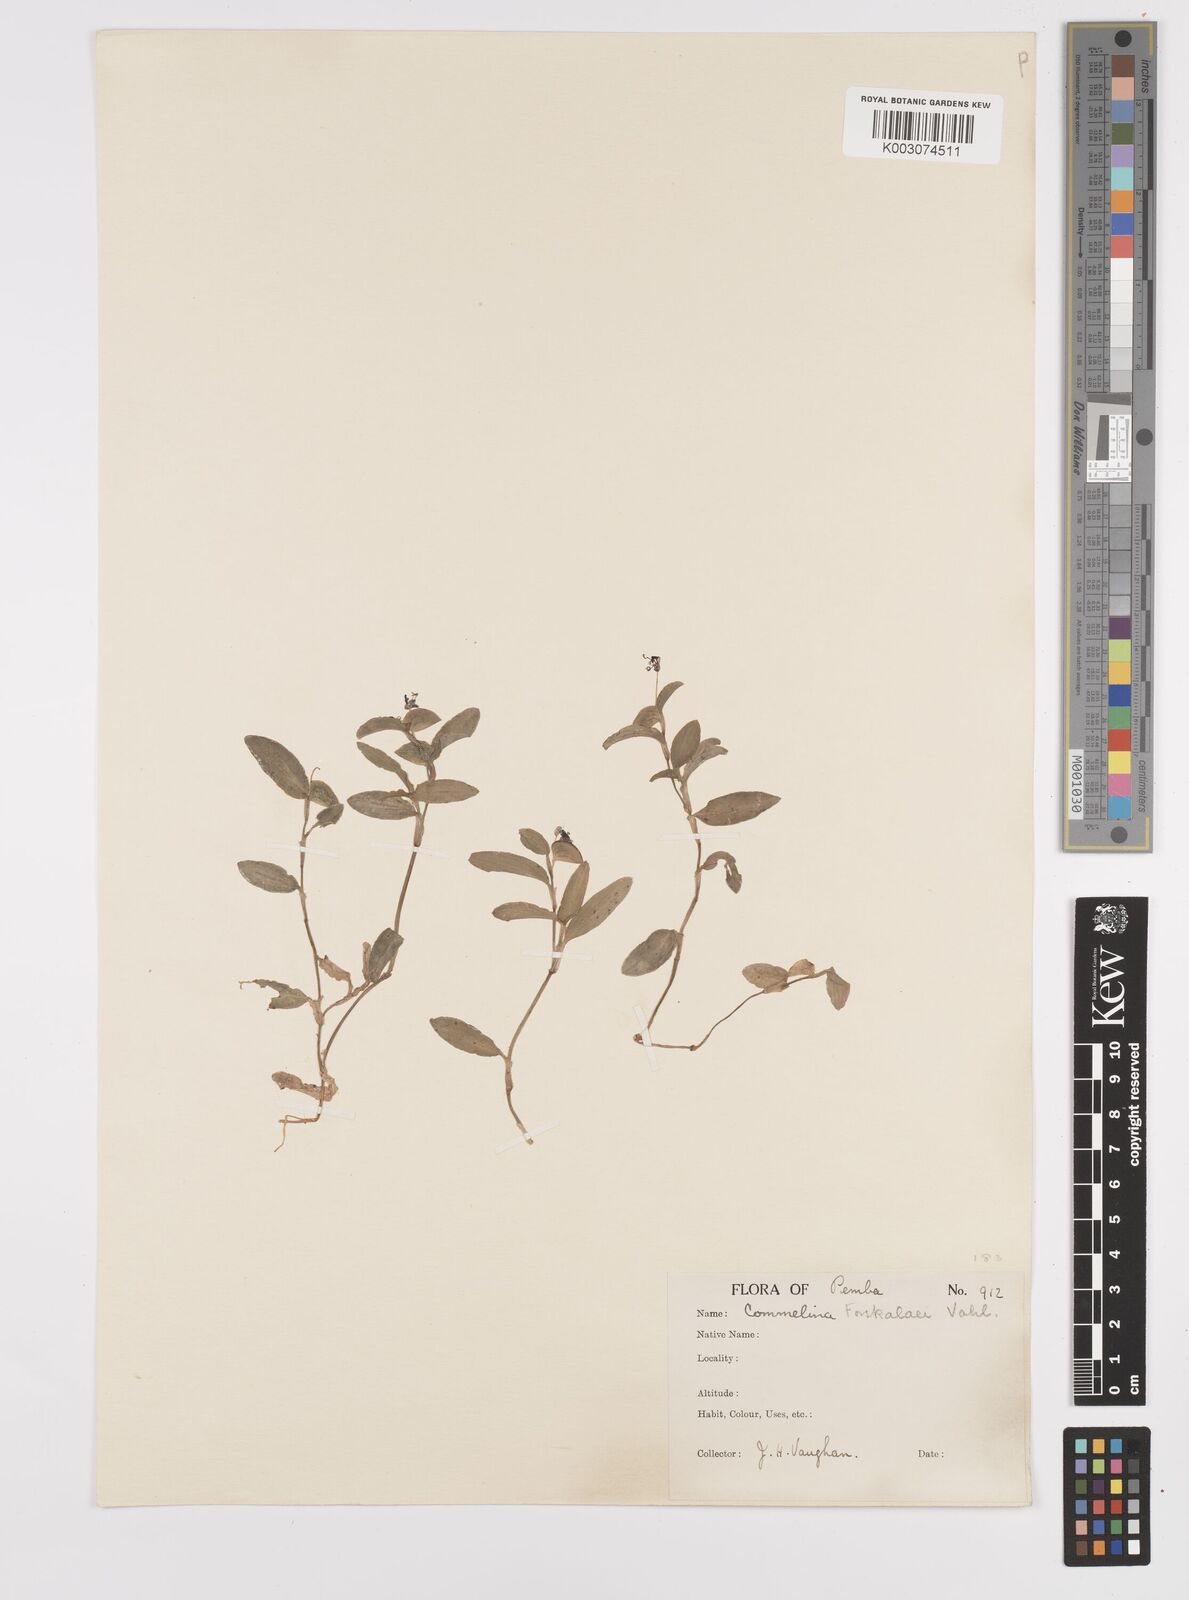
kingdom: Plantae
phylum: Tracheophyta
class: Liliopsida
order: Commelinales
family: Commelinaceae
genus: Commelina
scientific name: Commelina forskaolii
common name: Rat's ear
